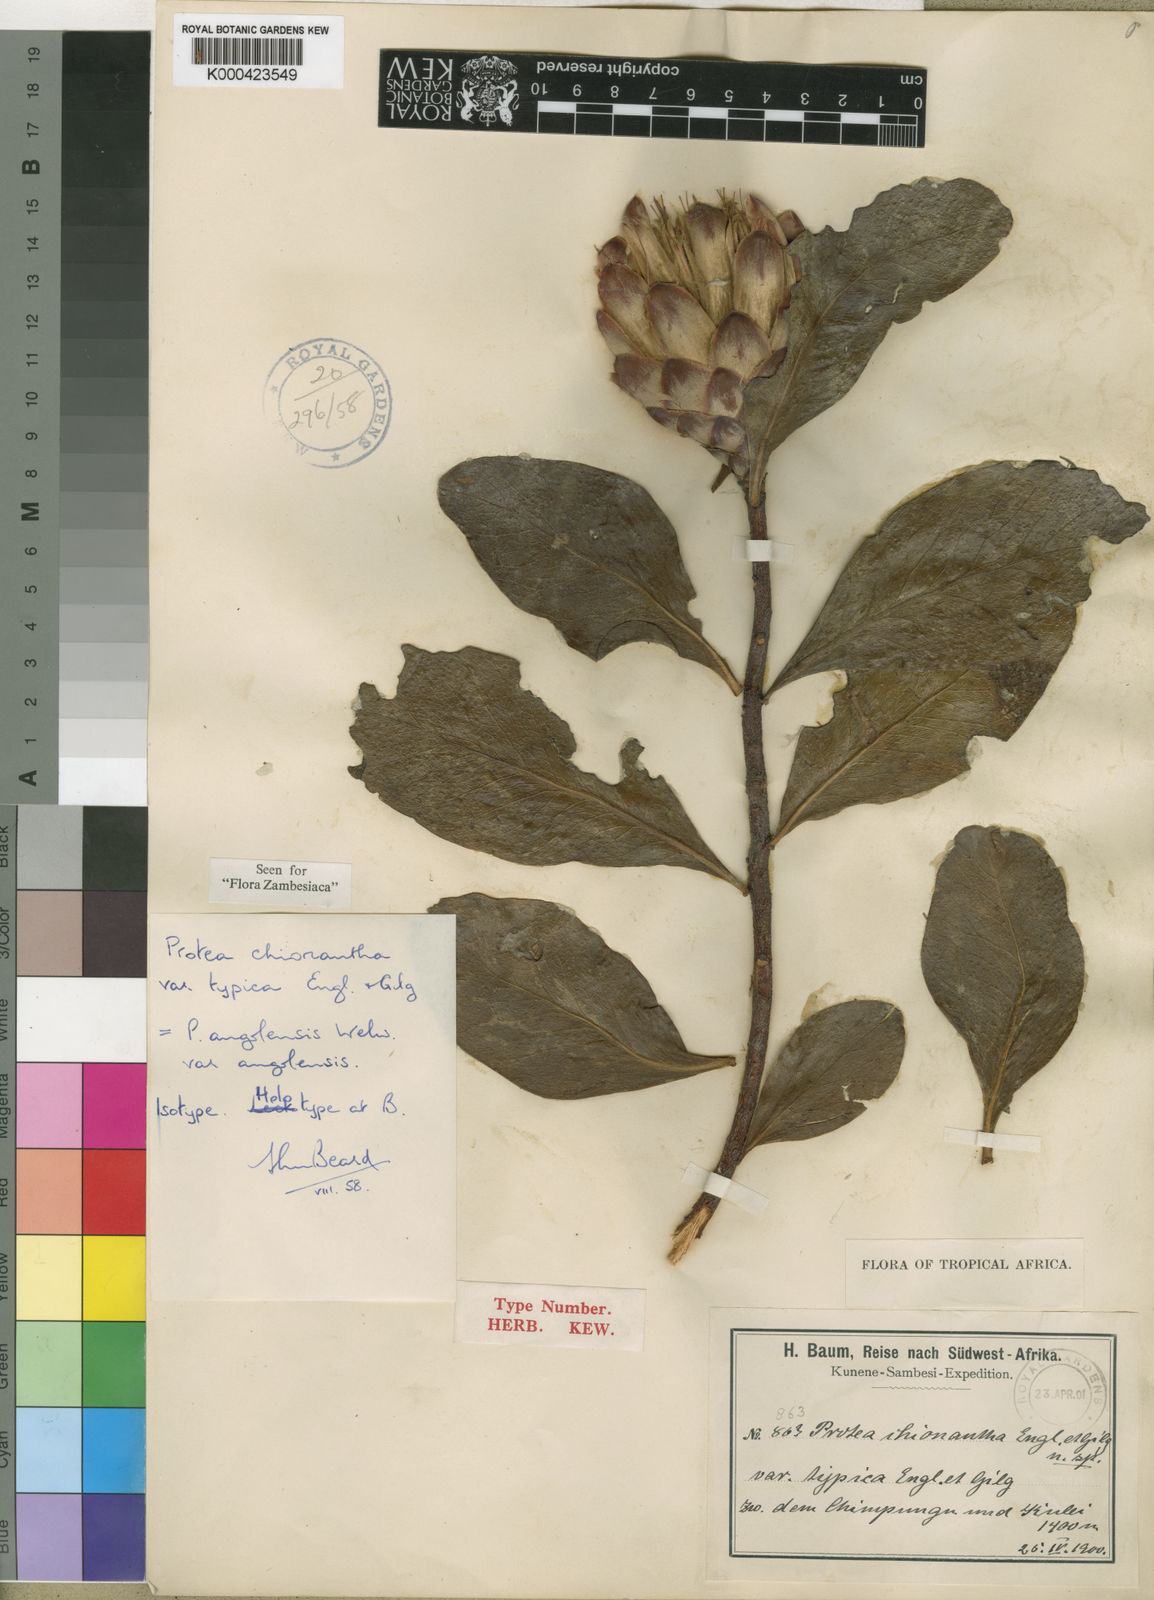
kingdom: Plantae
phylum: Tracheophyta
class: Magnoliopsida
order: Proteales
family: Proteaceae
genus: Protea
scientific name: Protea angolensis
